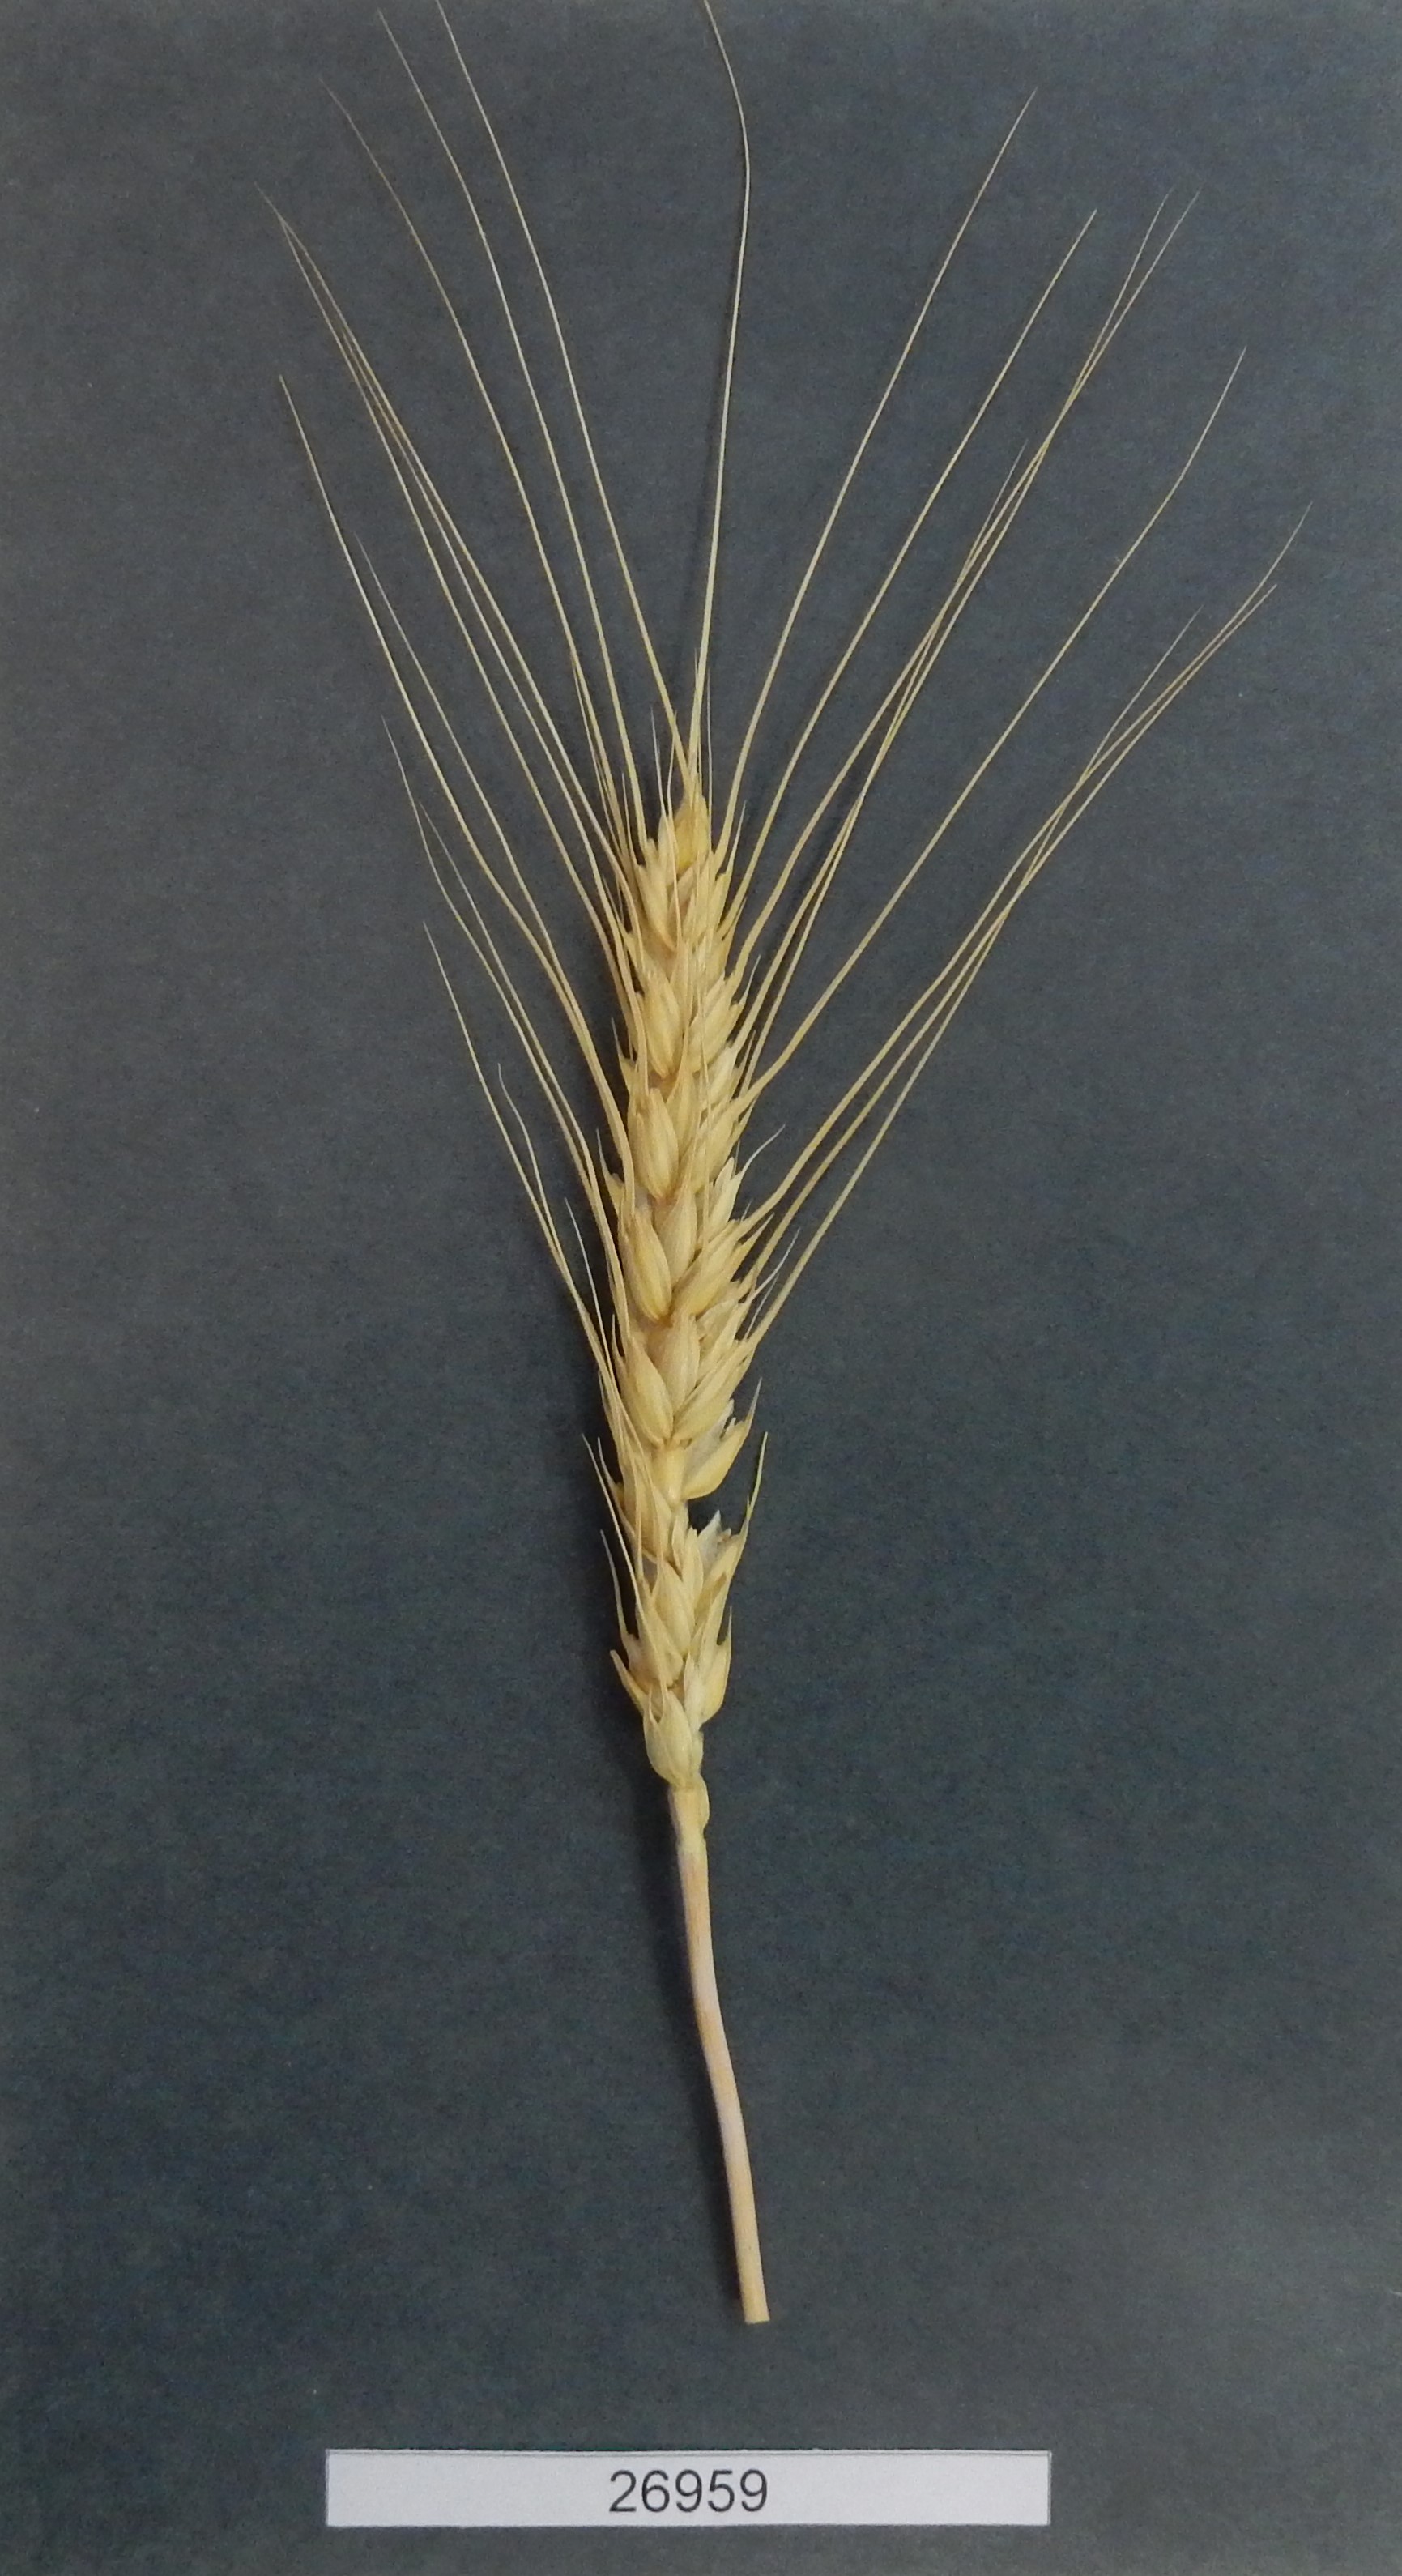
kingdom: Plantae
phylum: Tracheophyta
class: Liliopsida
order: Poales
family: Poaceae
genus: Triticum
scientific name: Triticum
